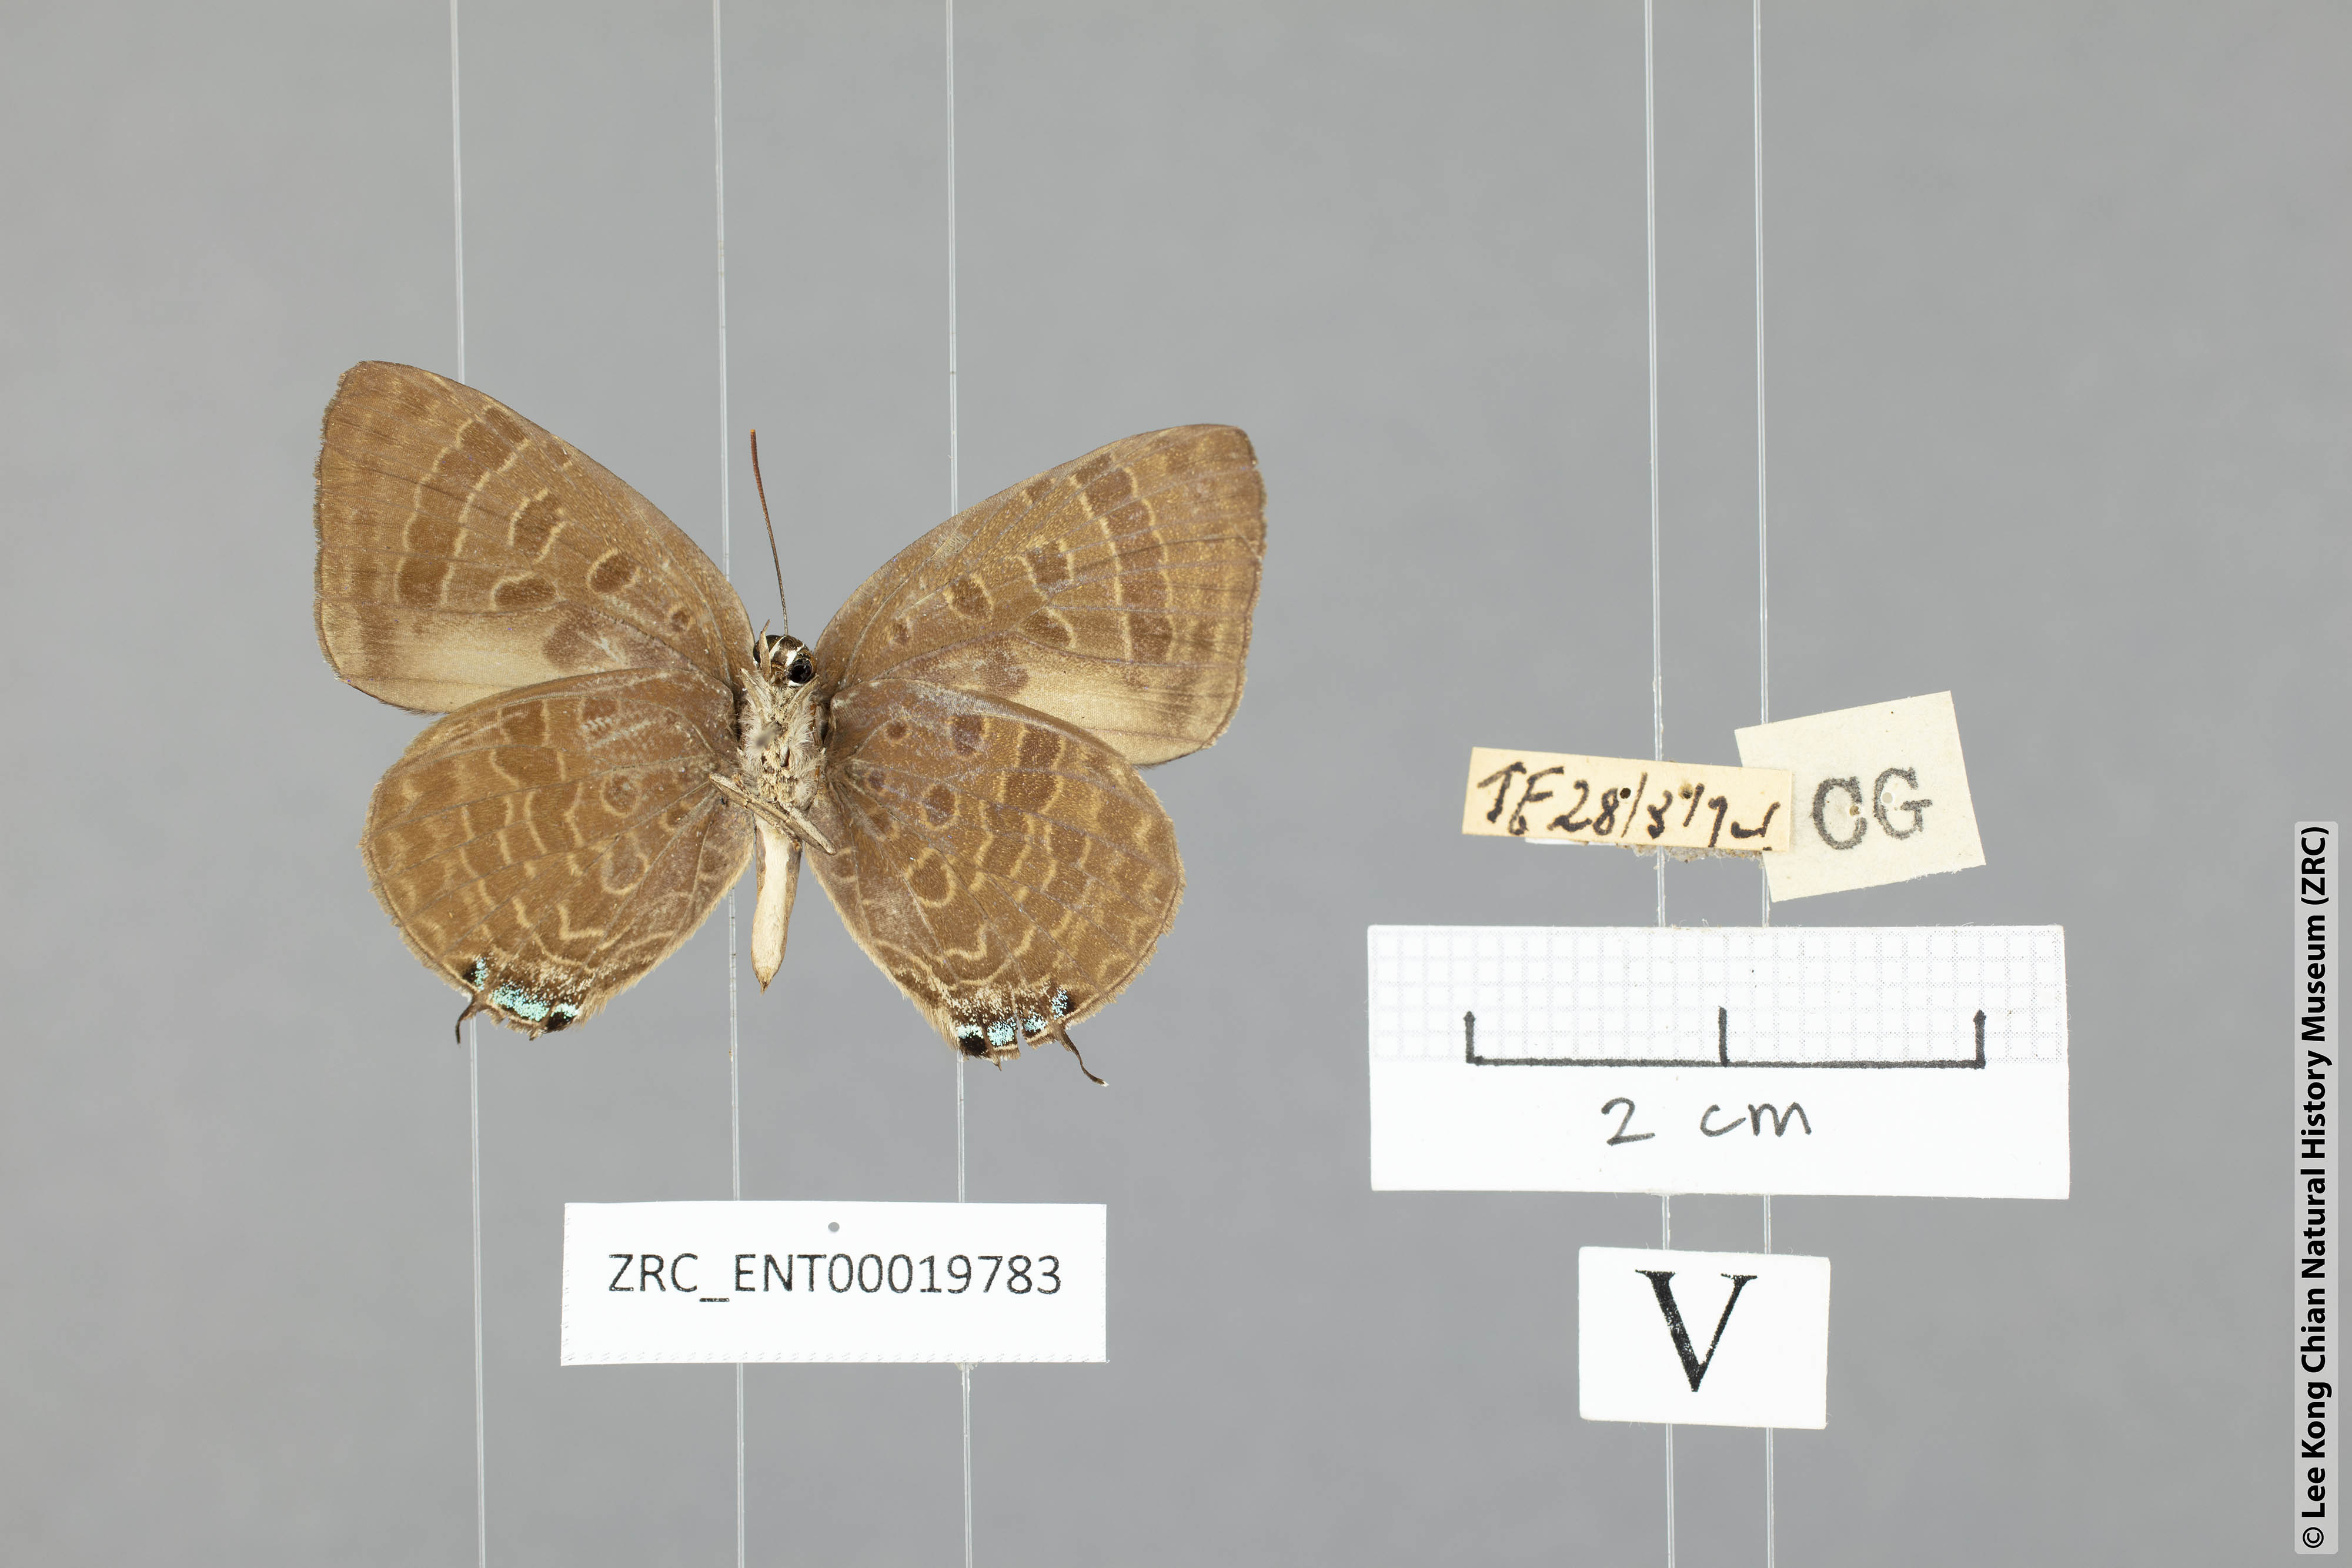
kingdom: Animalia
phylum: Arthropoda
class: Insecta
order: Lepidoptera
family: Lycaenidae
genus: Arhopala
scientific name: Arhopala phaenops
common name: Sumatran oakblue
